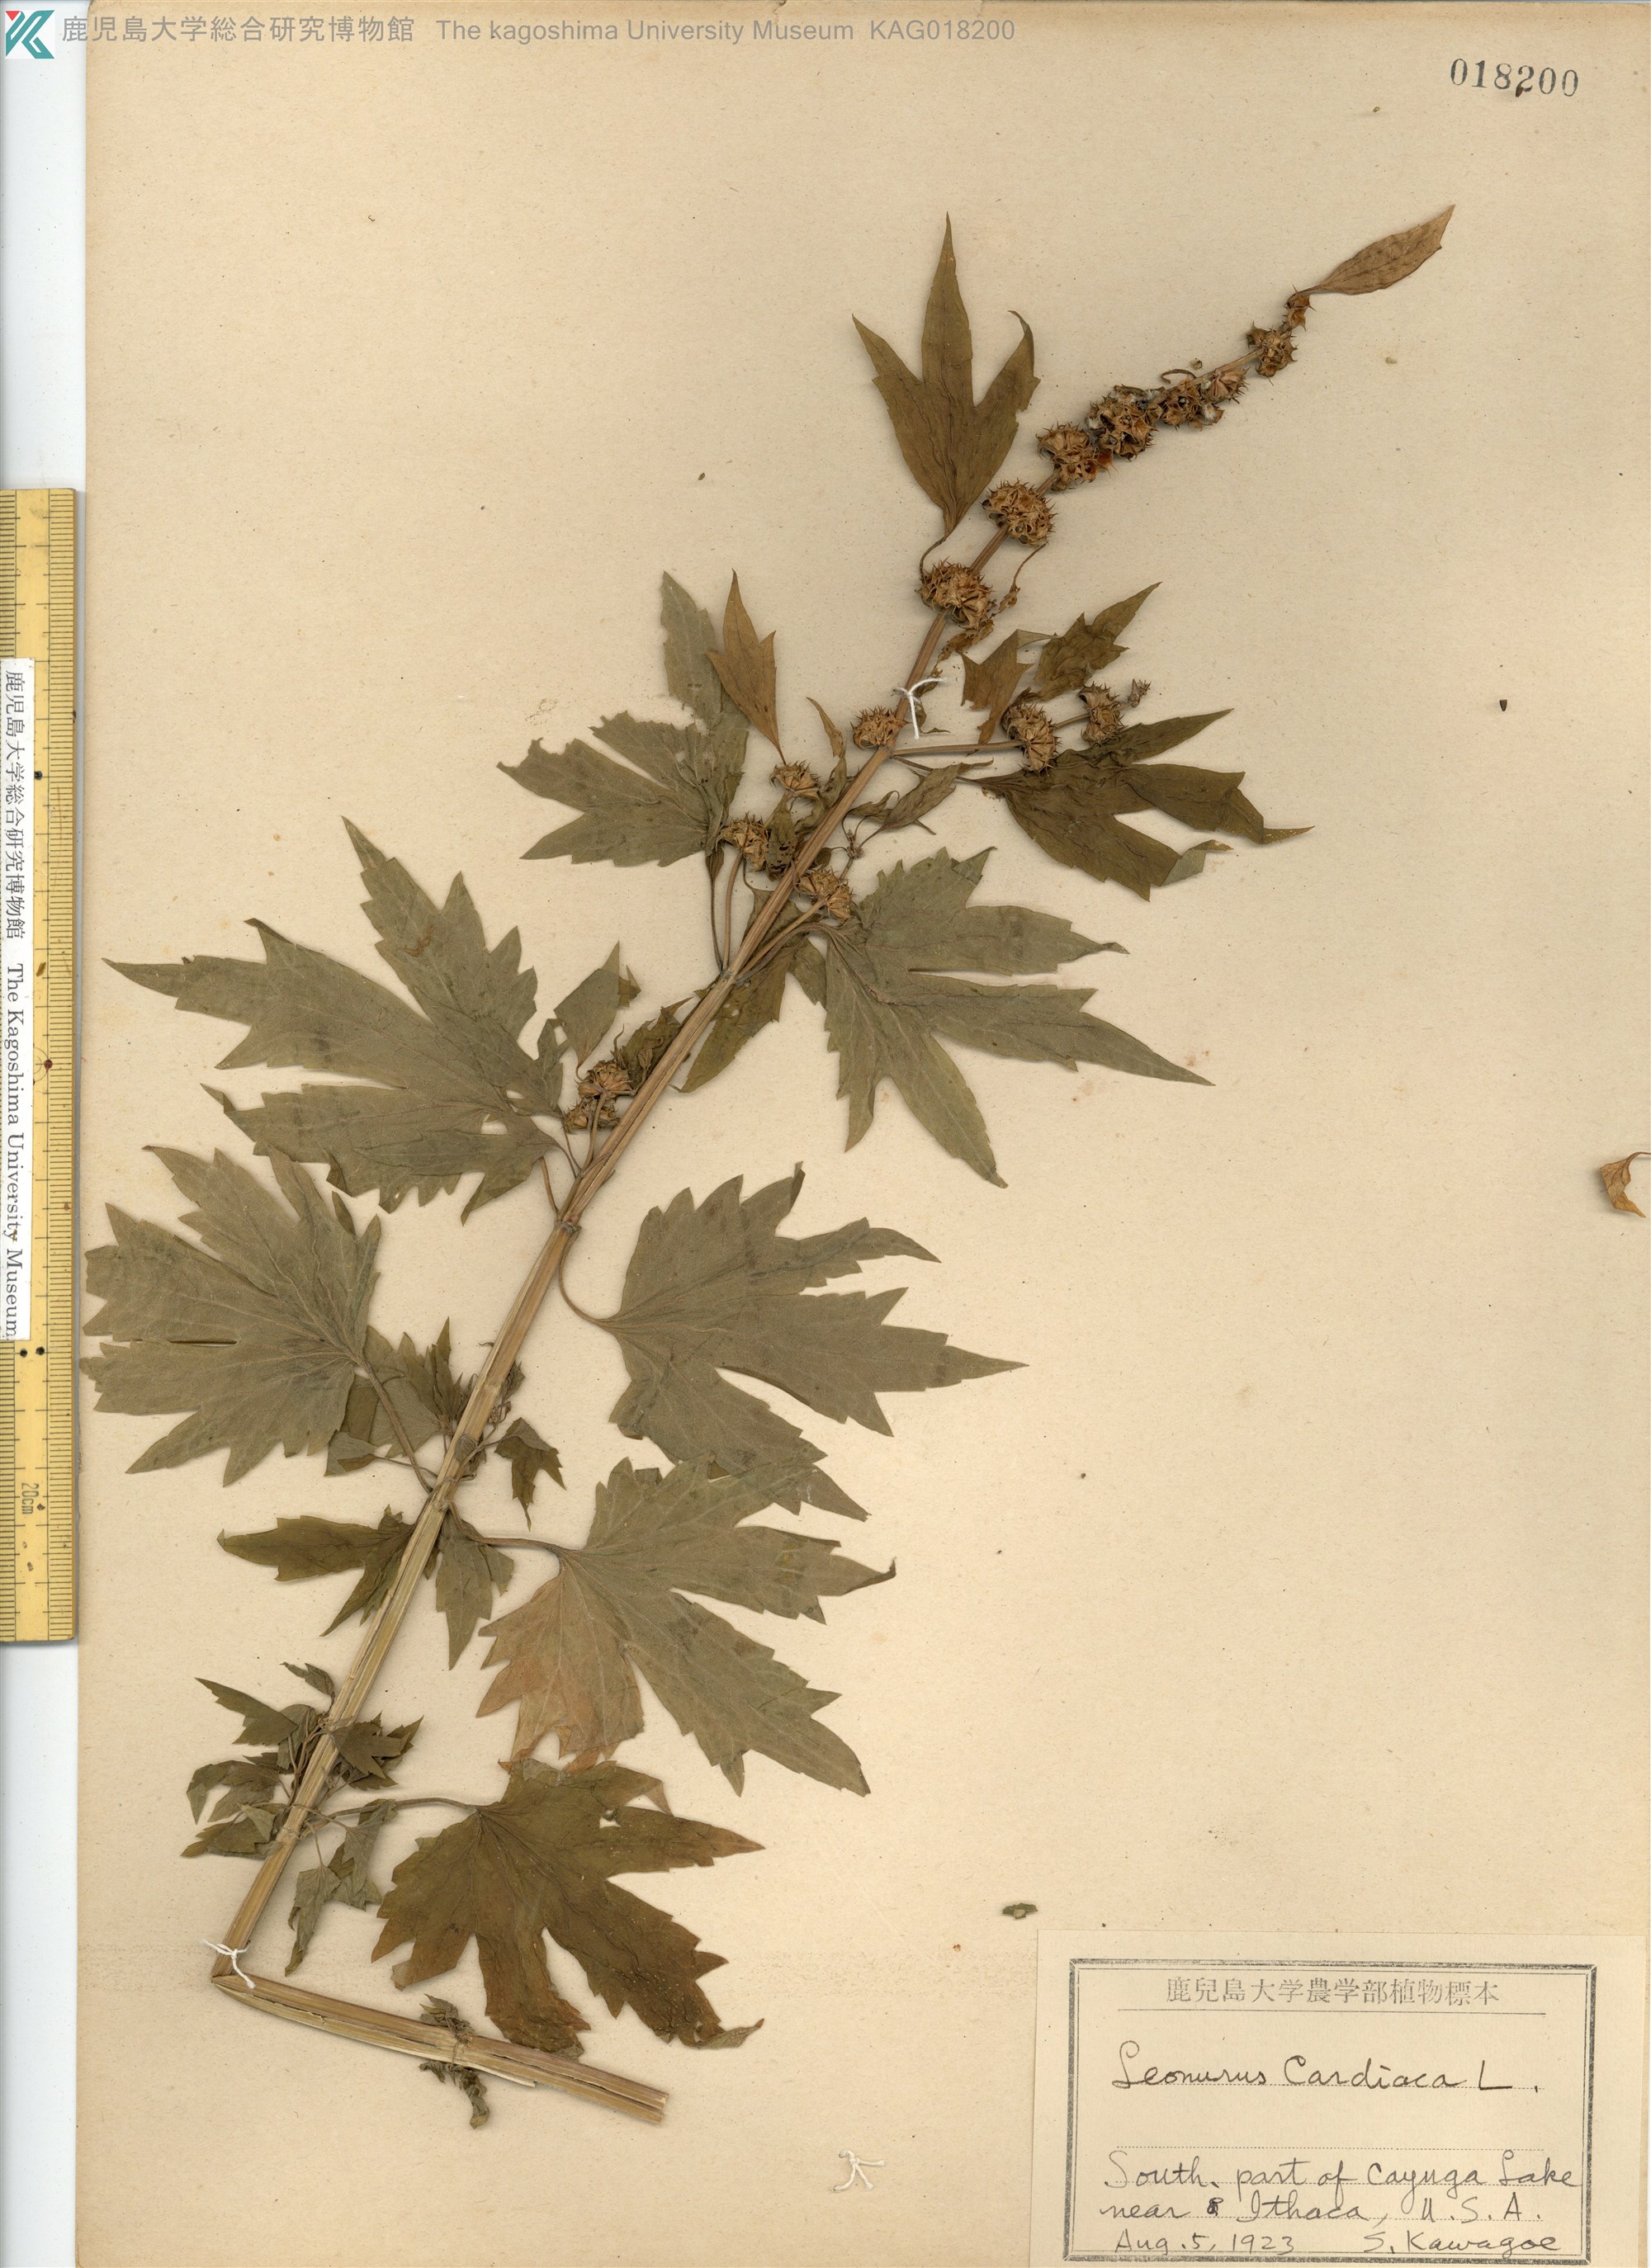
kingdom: Plantae
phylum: Tracheophyta
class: Magnoliopsida
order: Lamiales
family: Lamiaceae
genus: Leonurus
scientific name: Leonurus cardiaca
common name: Motherwort
